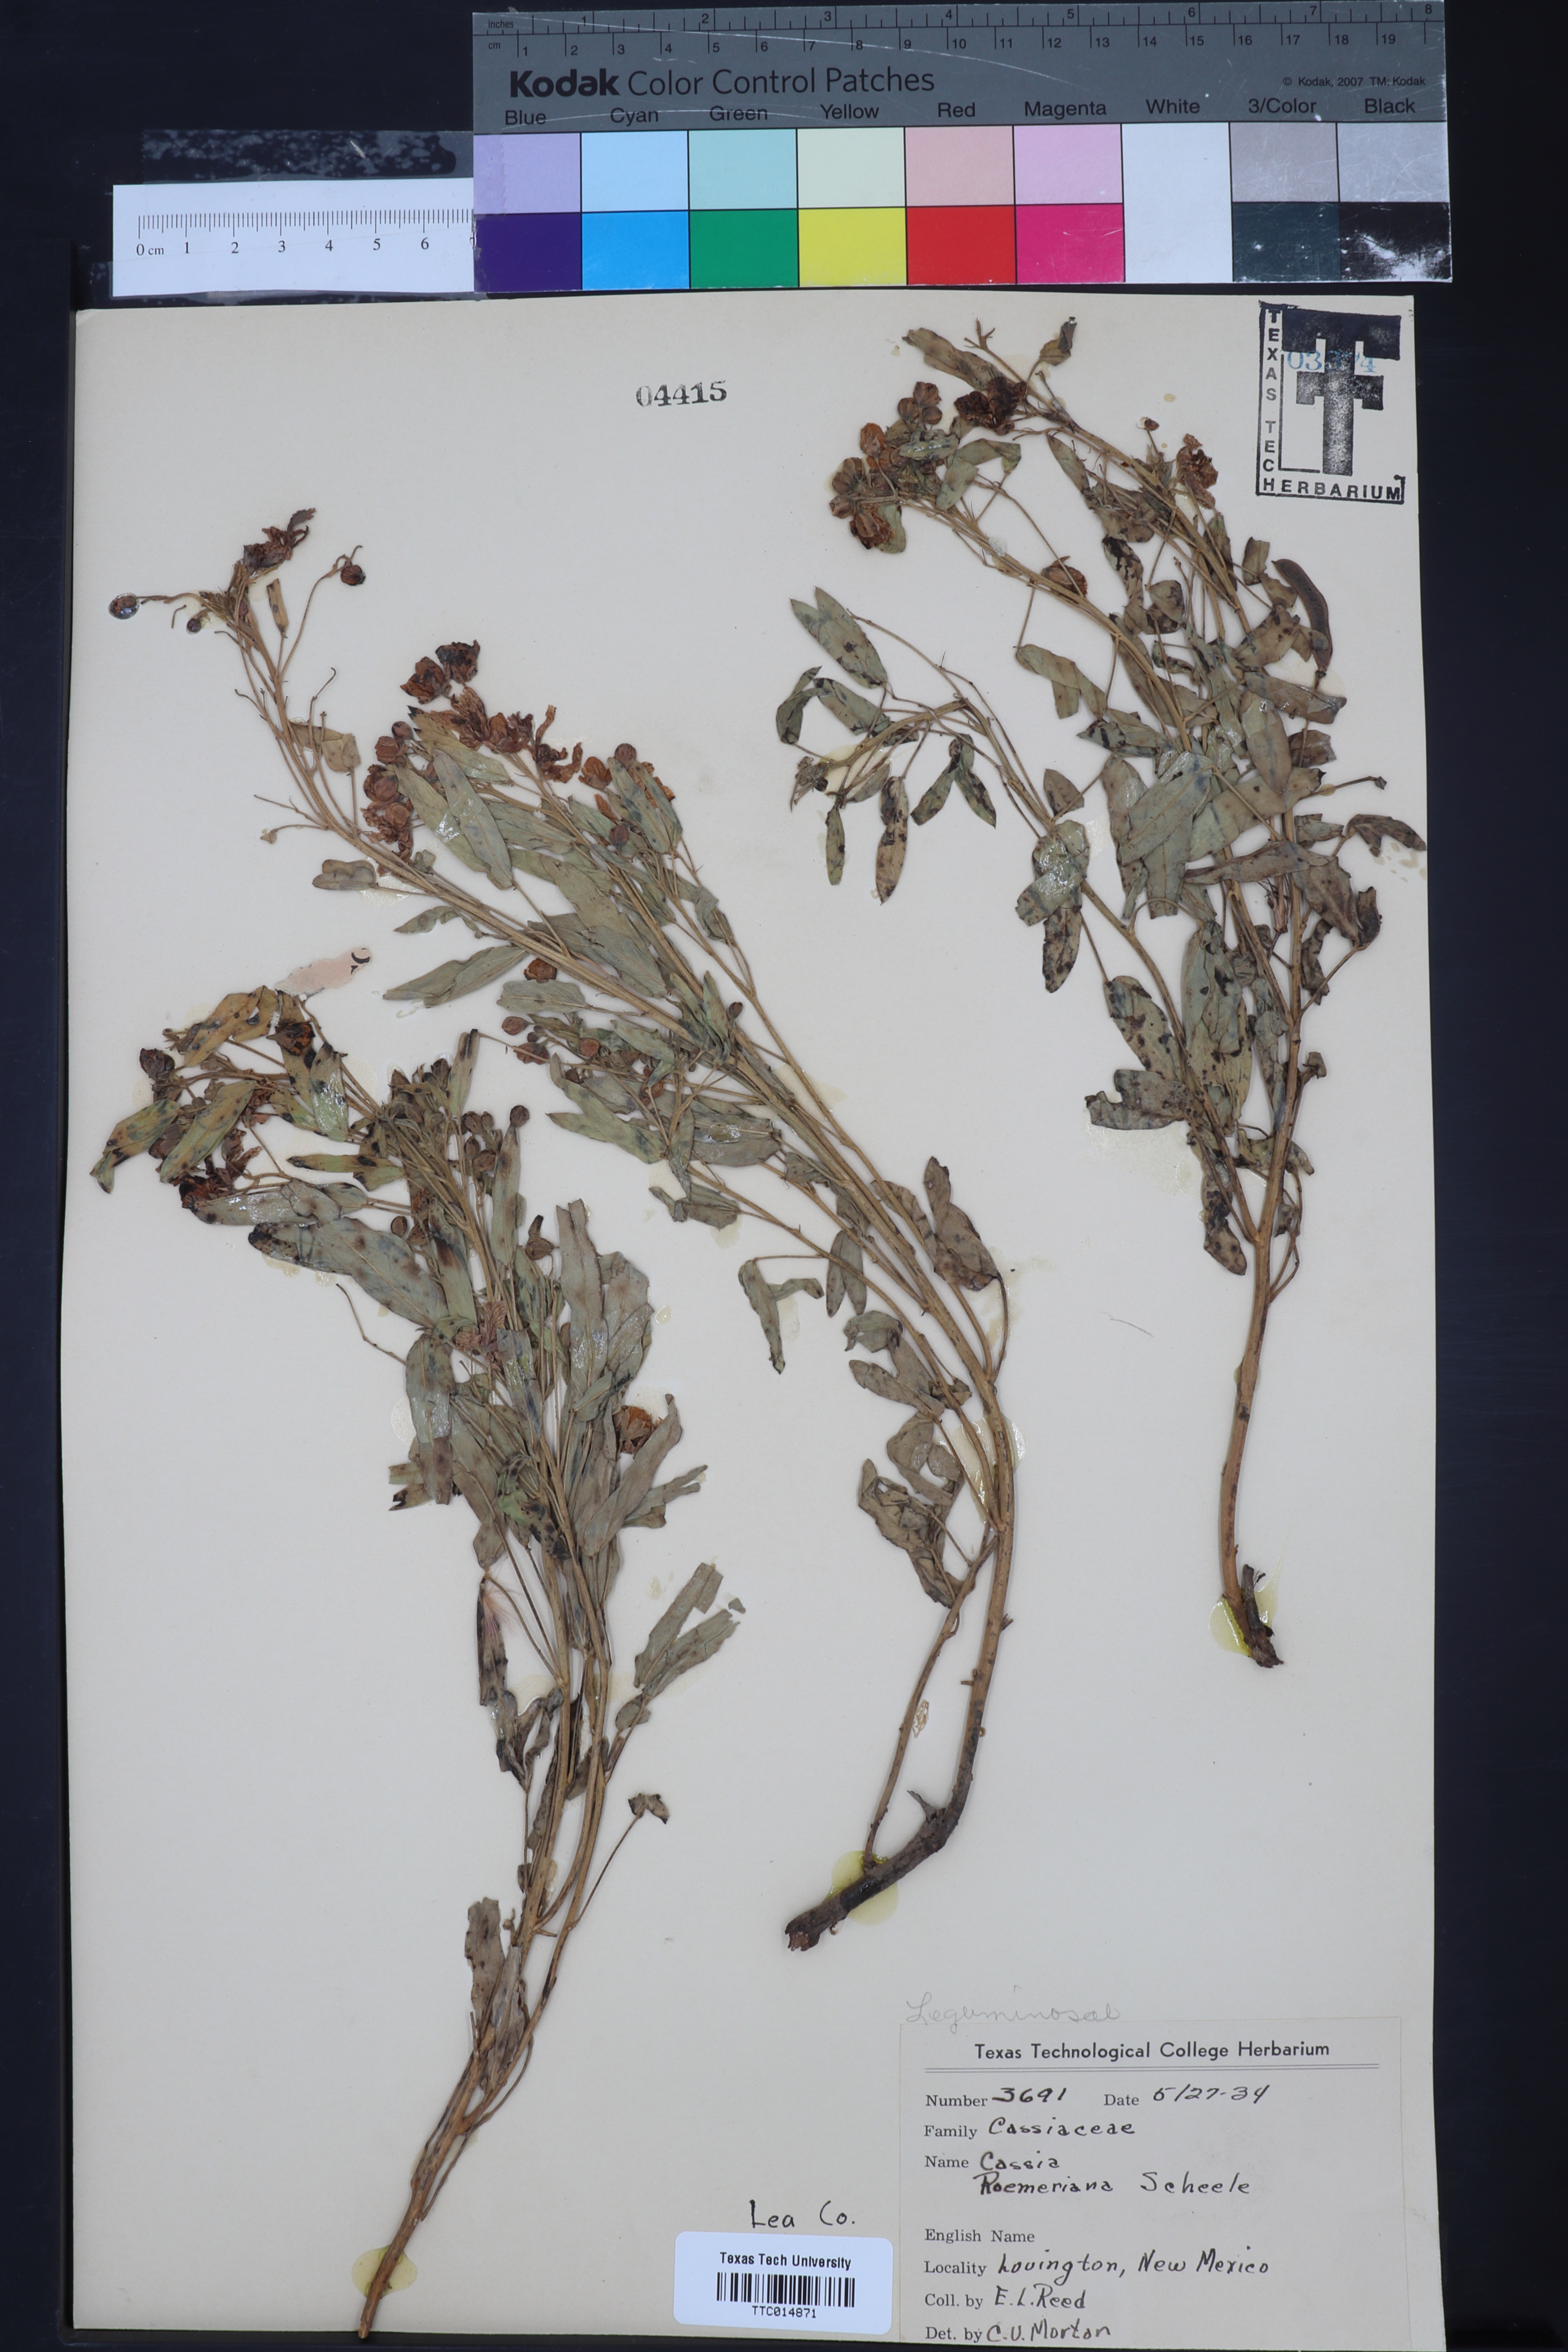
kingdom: Plantae
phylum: Tracheophyta
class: Magnoliopsida
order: Fabales
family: Fabaceae
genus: Senna
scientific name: Senna roemeriana
